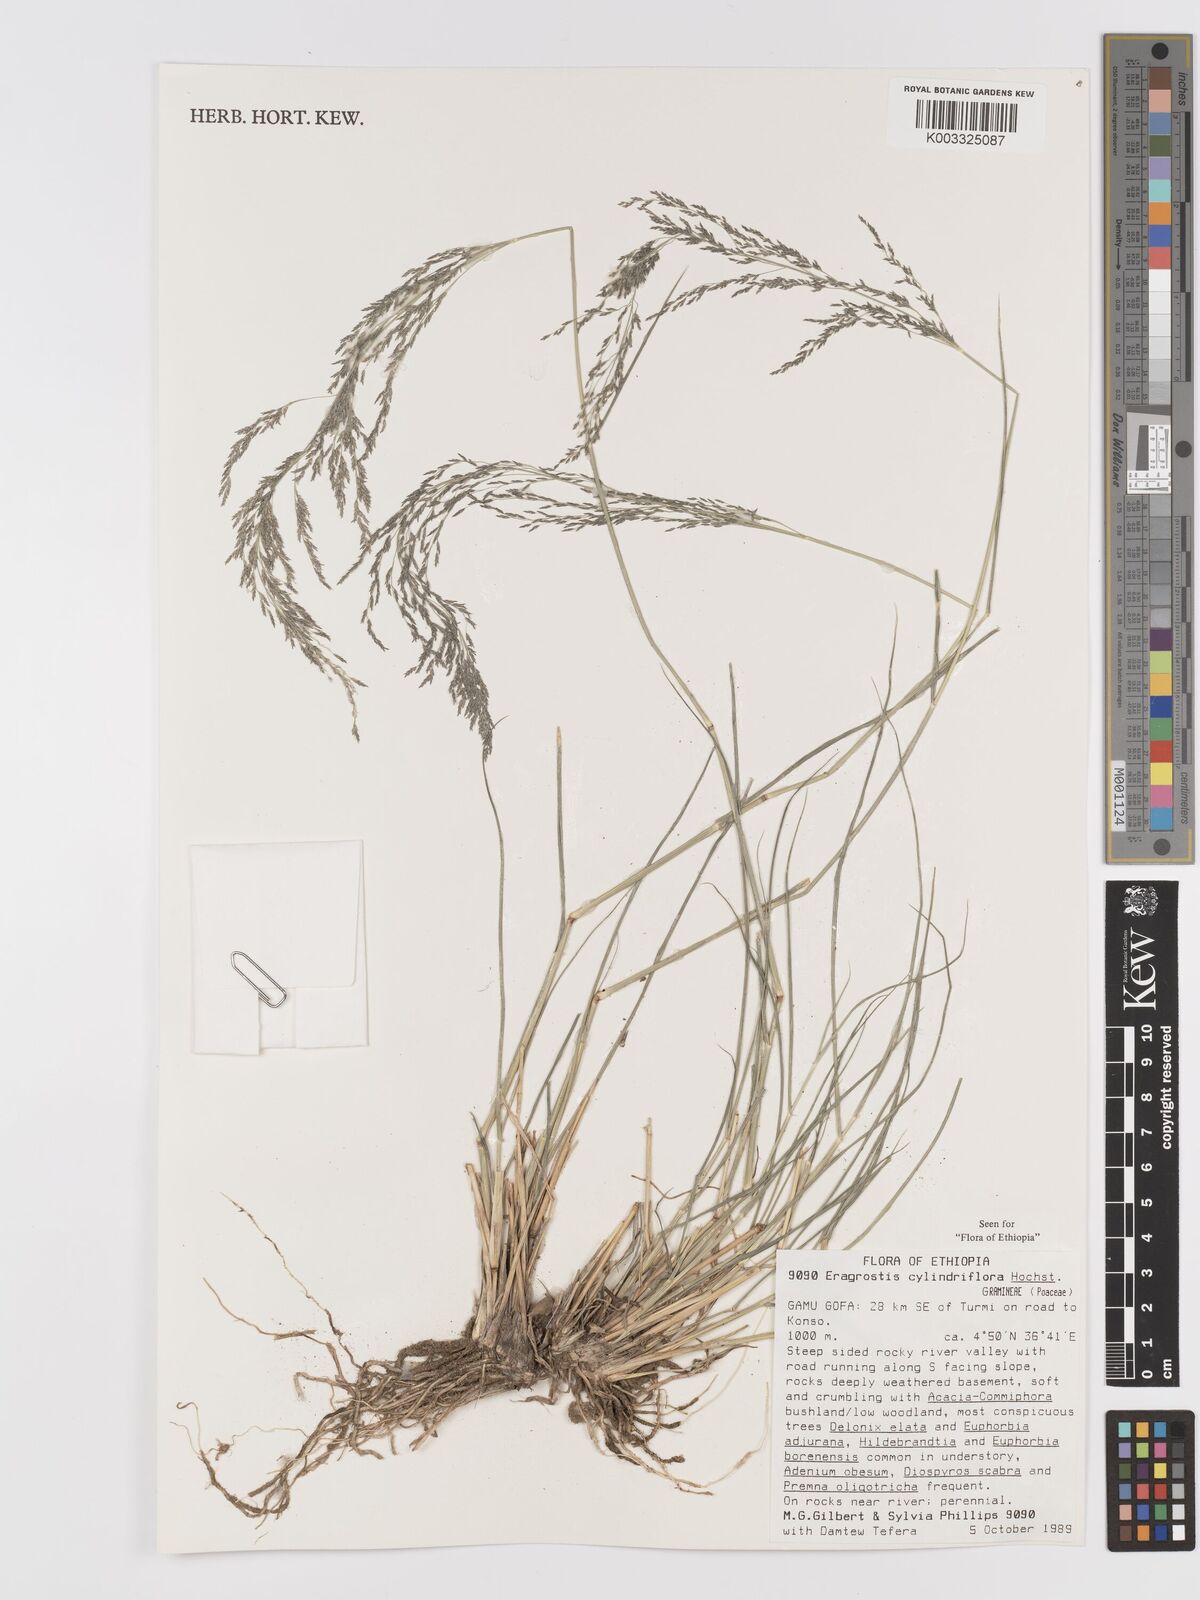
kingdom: Plantae
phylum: Tracheophyta
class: Liliopsida
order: Poales
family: Poaceae
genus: Eragrostis
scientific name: Eragrostis cylindriflora
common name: Cylinderflower lovegrass
